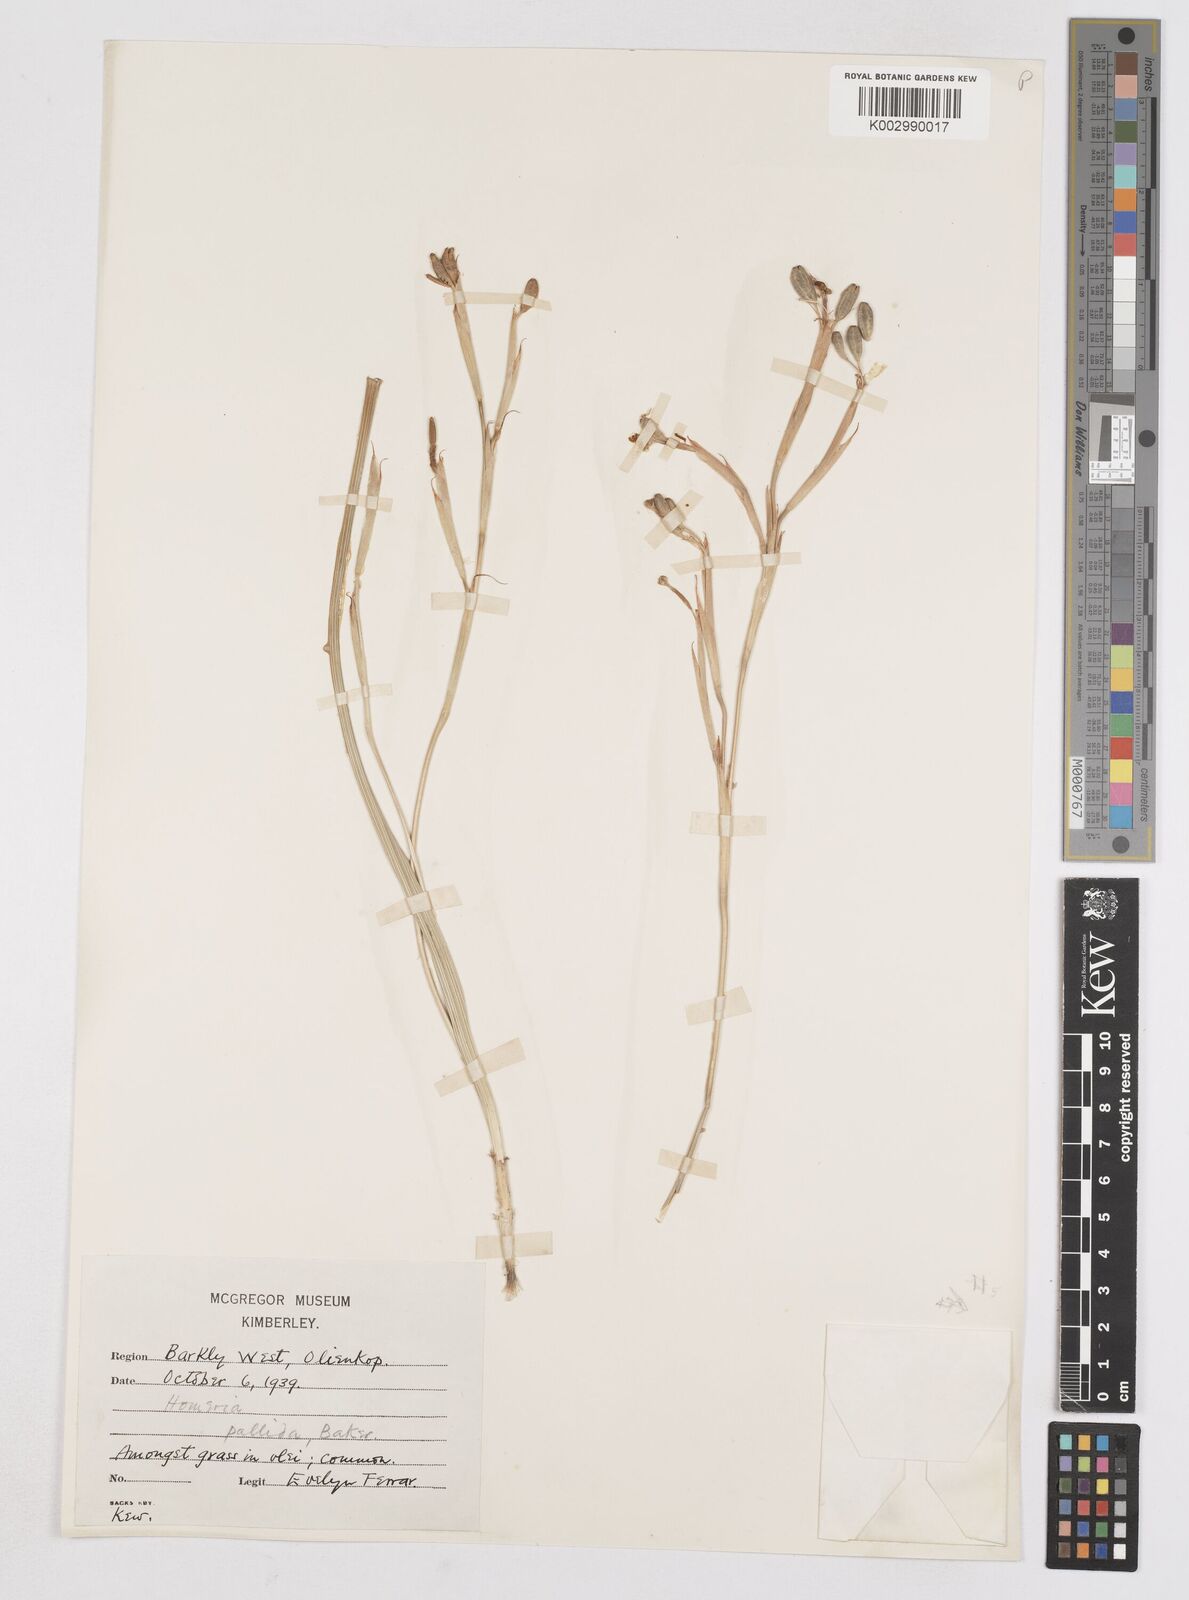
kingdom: Plantae
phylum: Tracheophyta
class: Liliopsida
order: Asparagales
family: Iridaceae
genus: Moraea
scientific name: Moraea pallida
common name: Yellow tulp
